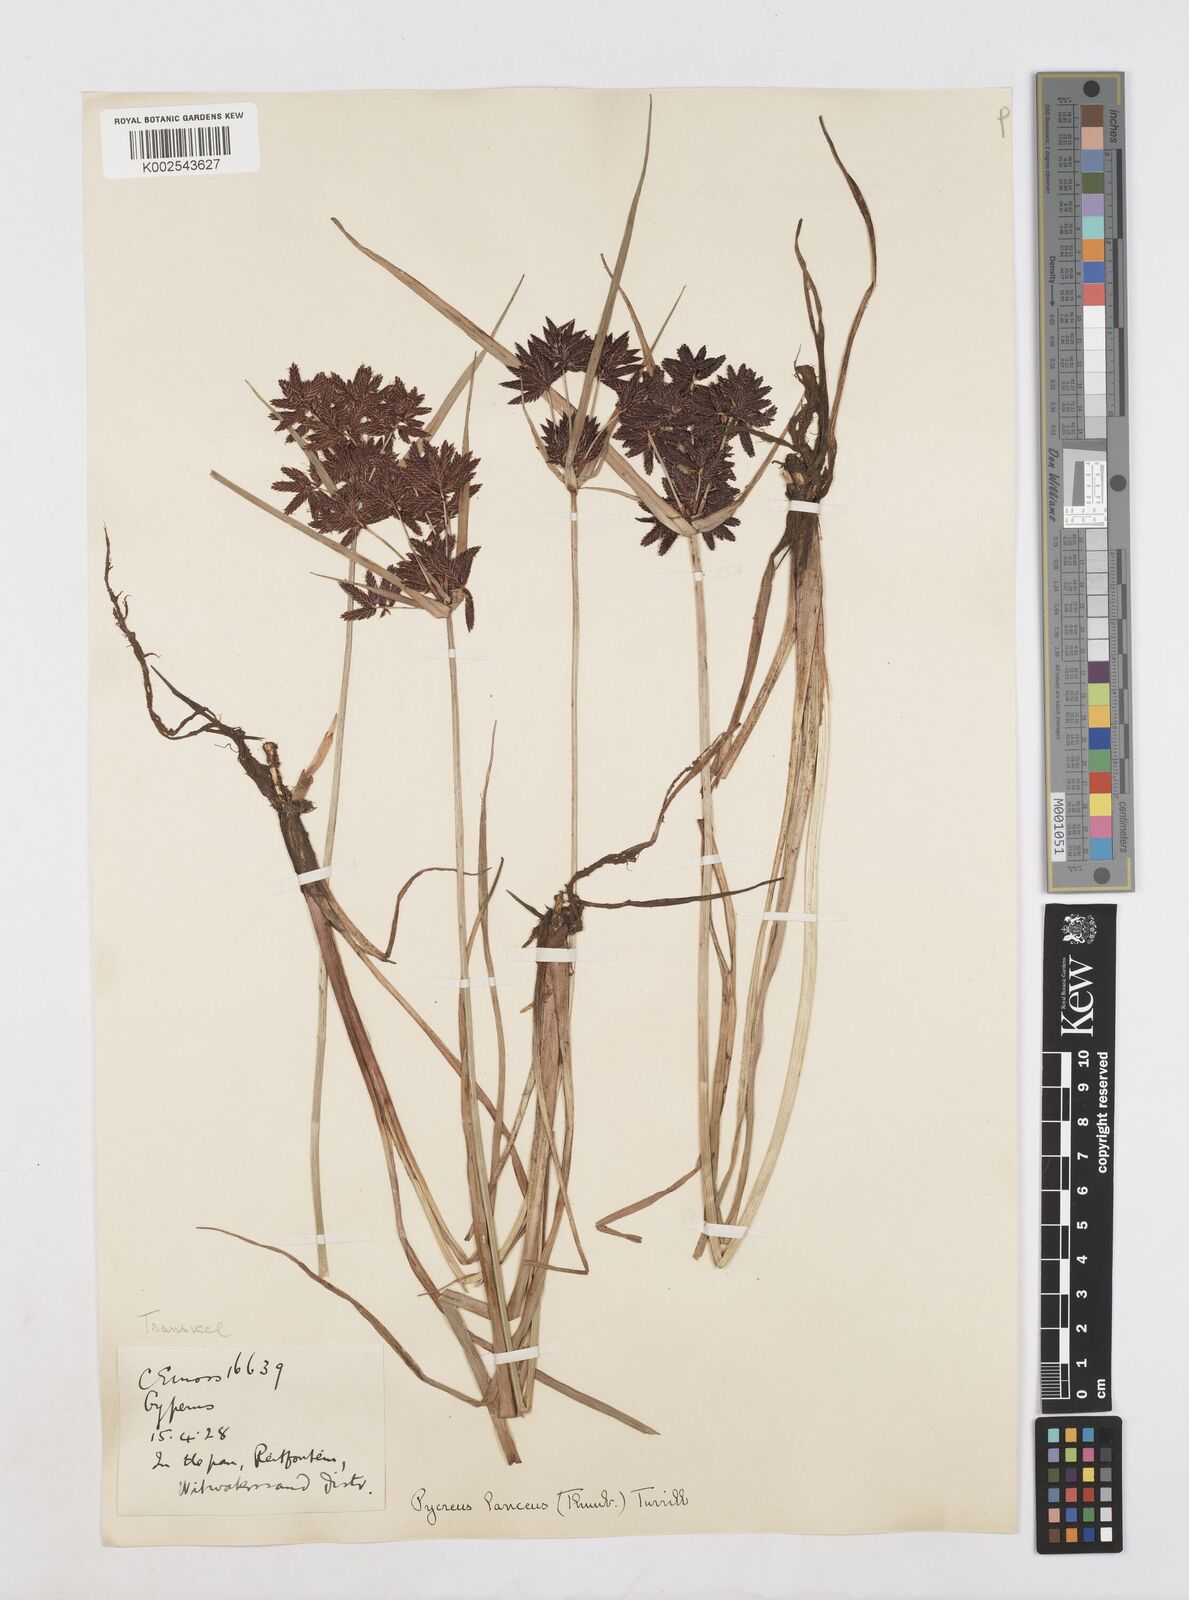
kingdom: Plantae
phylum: Tracheophyta
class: Liliopsida
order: Poales
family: Cyperaceae
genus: Cyperus
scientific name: Cyperus nitidus
